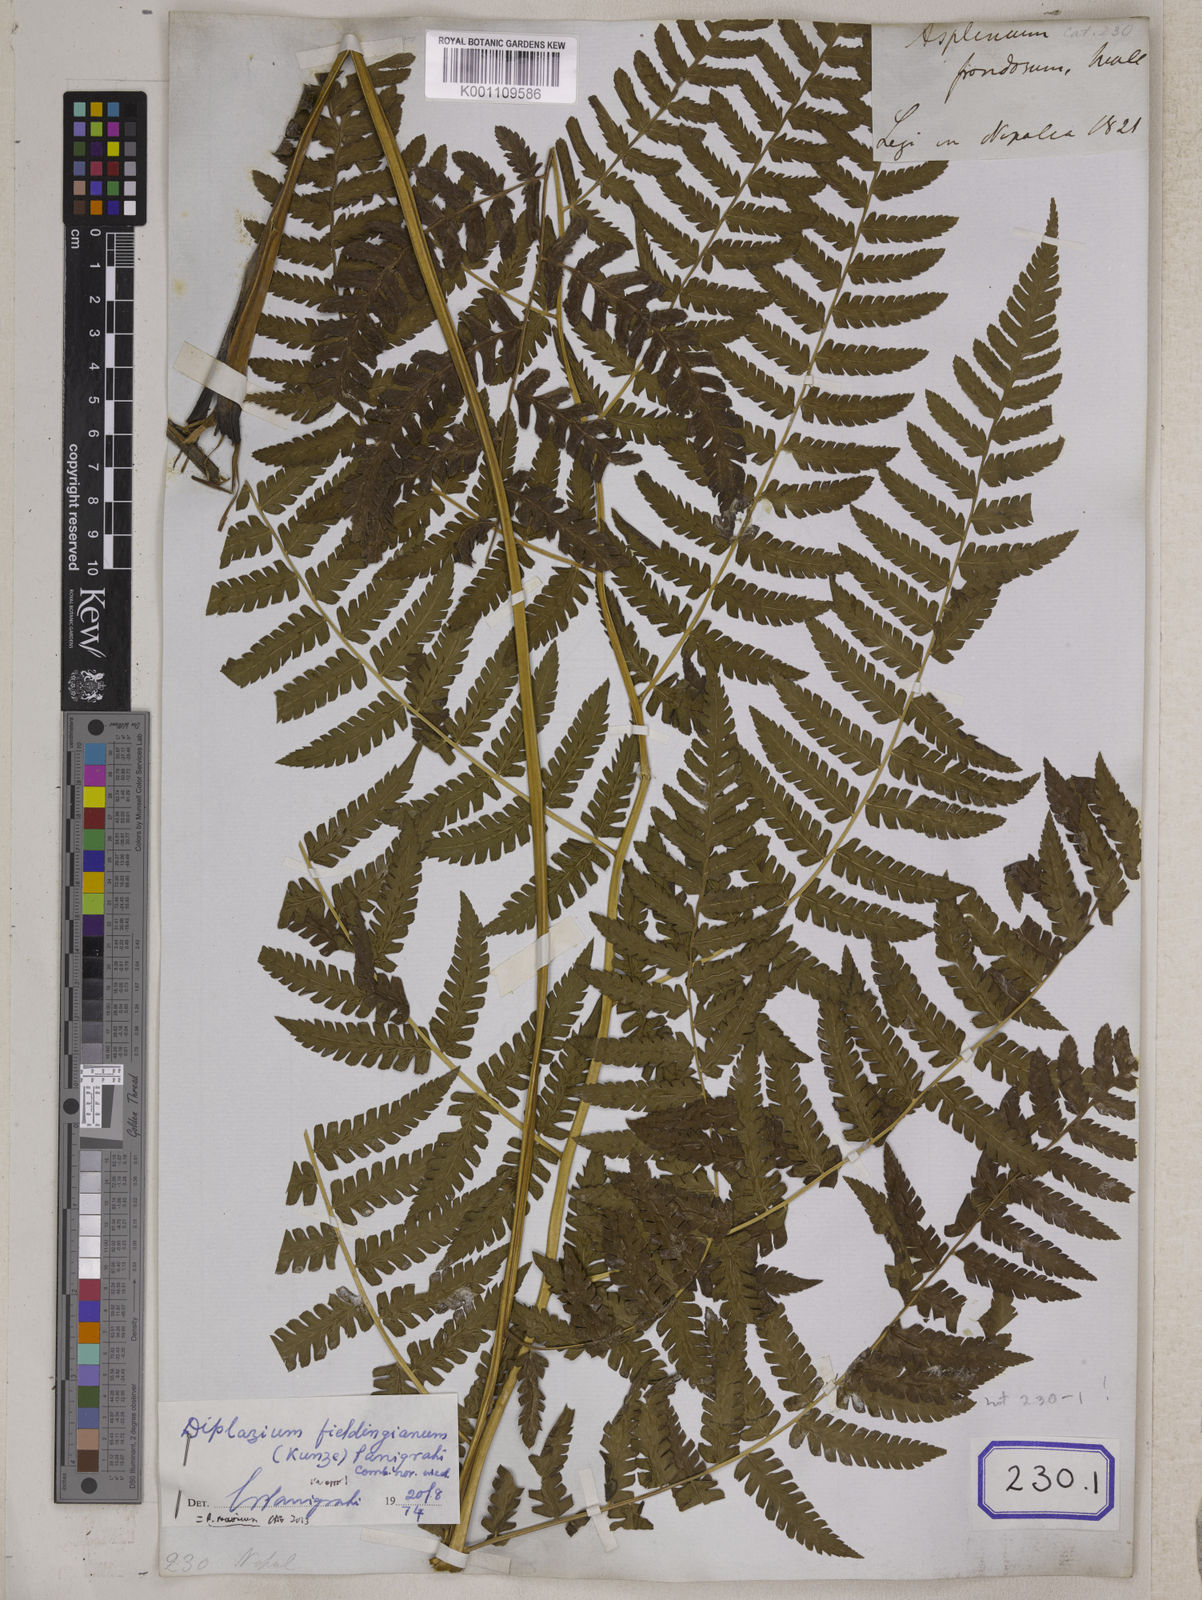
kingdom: Plantae
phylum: Tracheophyta
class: Polypodiopsida
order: Polypodiales
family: Athyriaceae
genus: Diplazium
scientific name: Diplazium maximum
